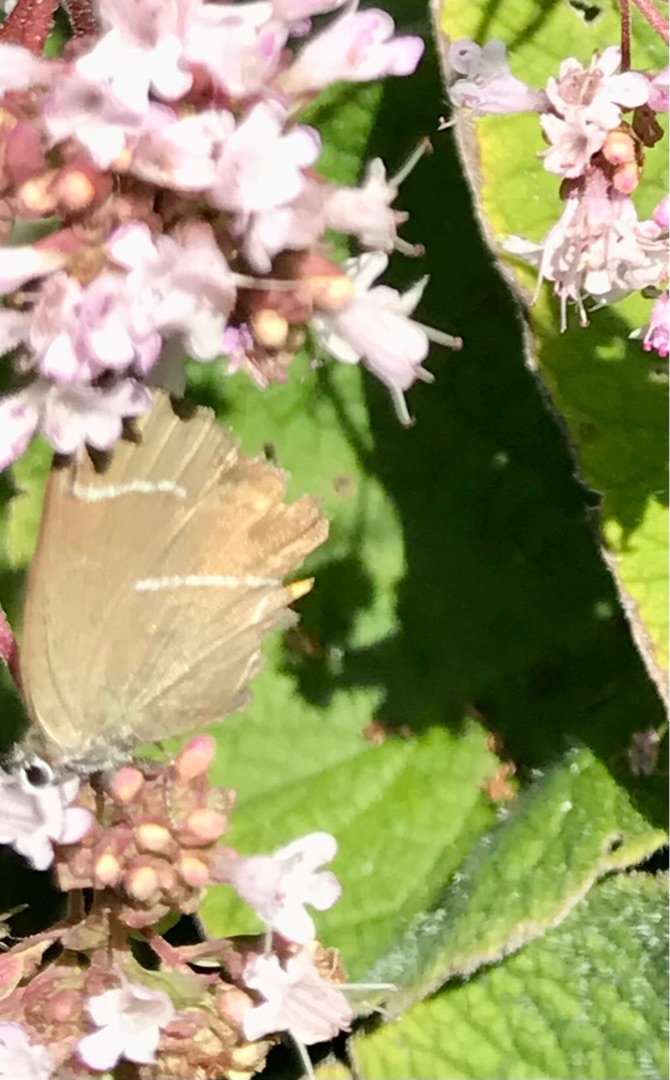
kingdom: Animalia
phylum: Arthropoda
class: Insecta
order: Lepidoptera
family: Lycaenidae
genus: Satyrium
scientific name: Satyrium w-album
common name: Det hvide W
